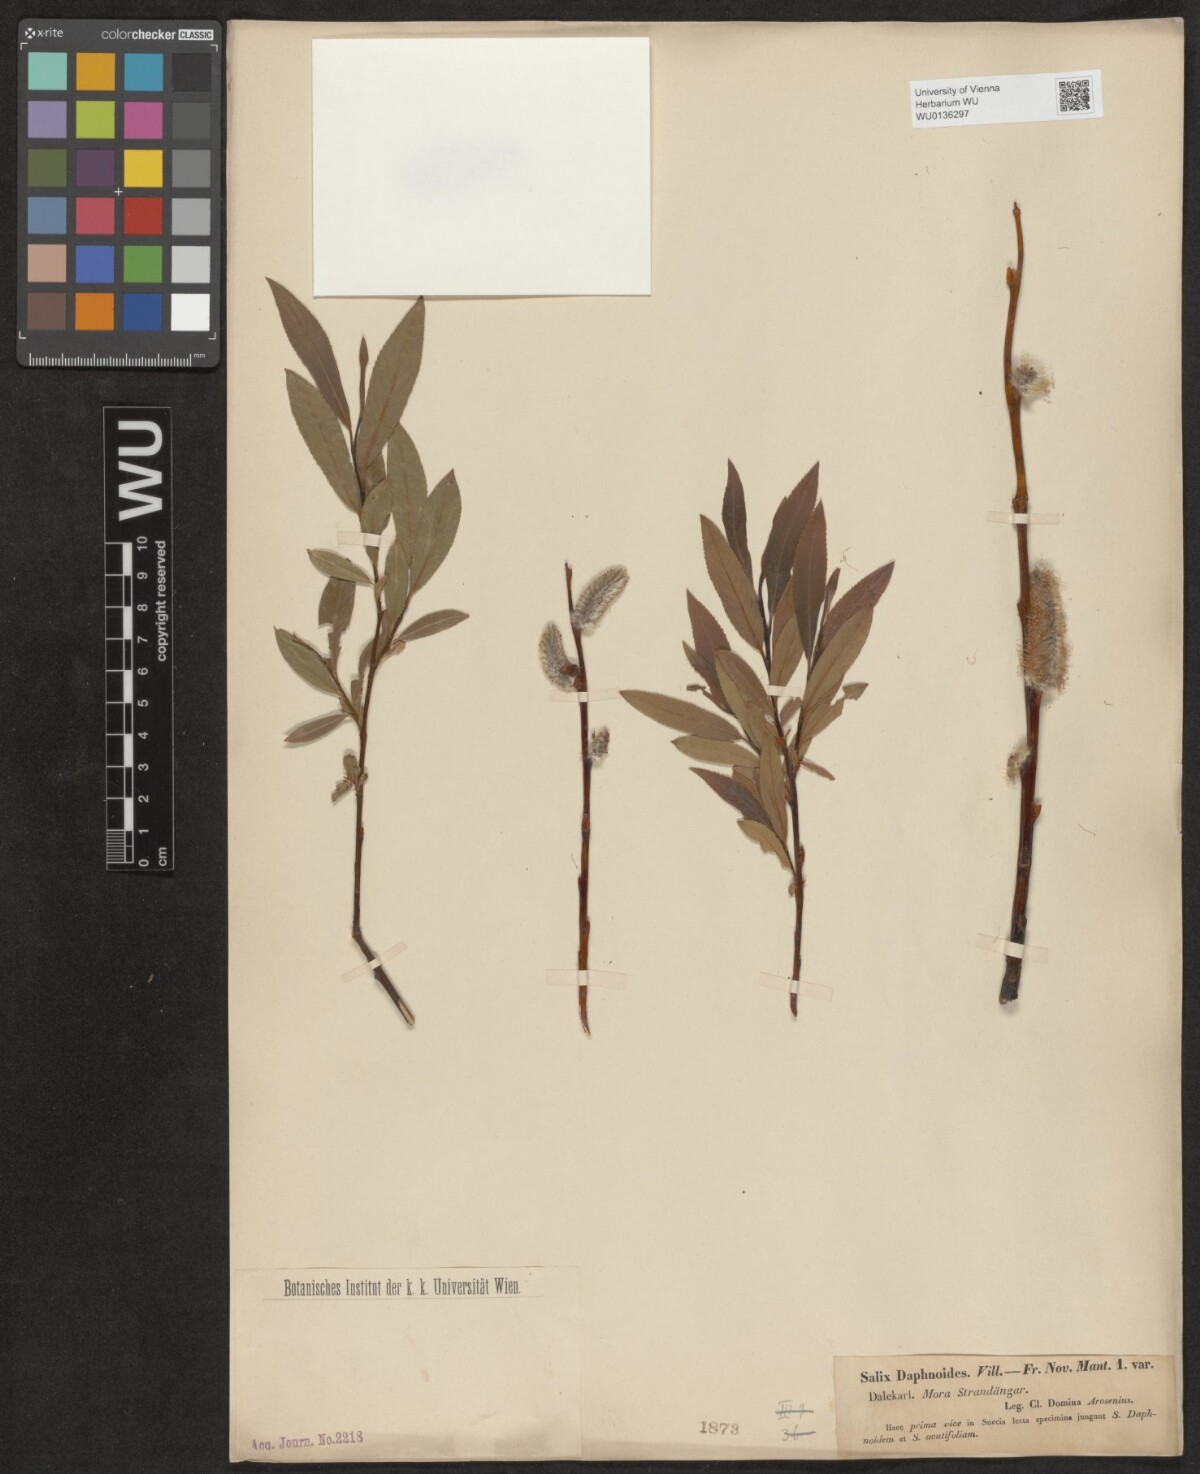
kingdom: Plantae
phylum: Tracheophyta
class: Magnoliopsida
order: Malpighiales
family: Salicaceae
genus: Salix
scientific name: Salix daphnoides
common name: European violet-willow
